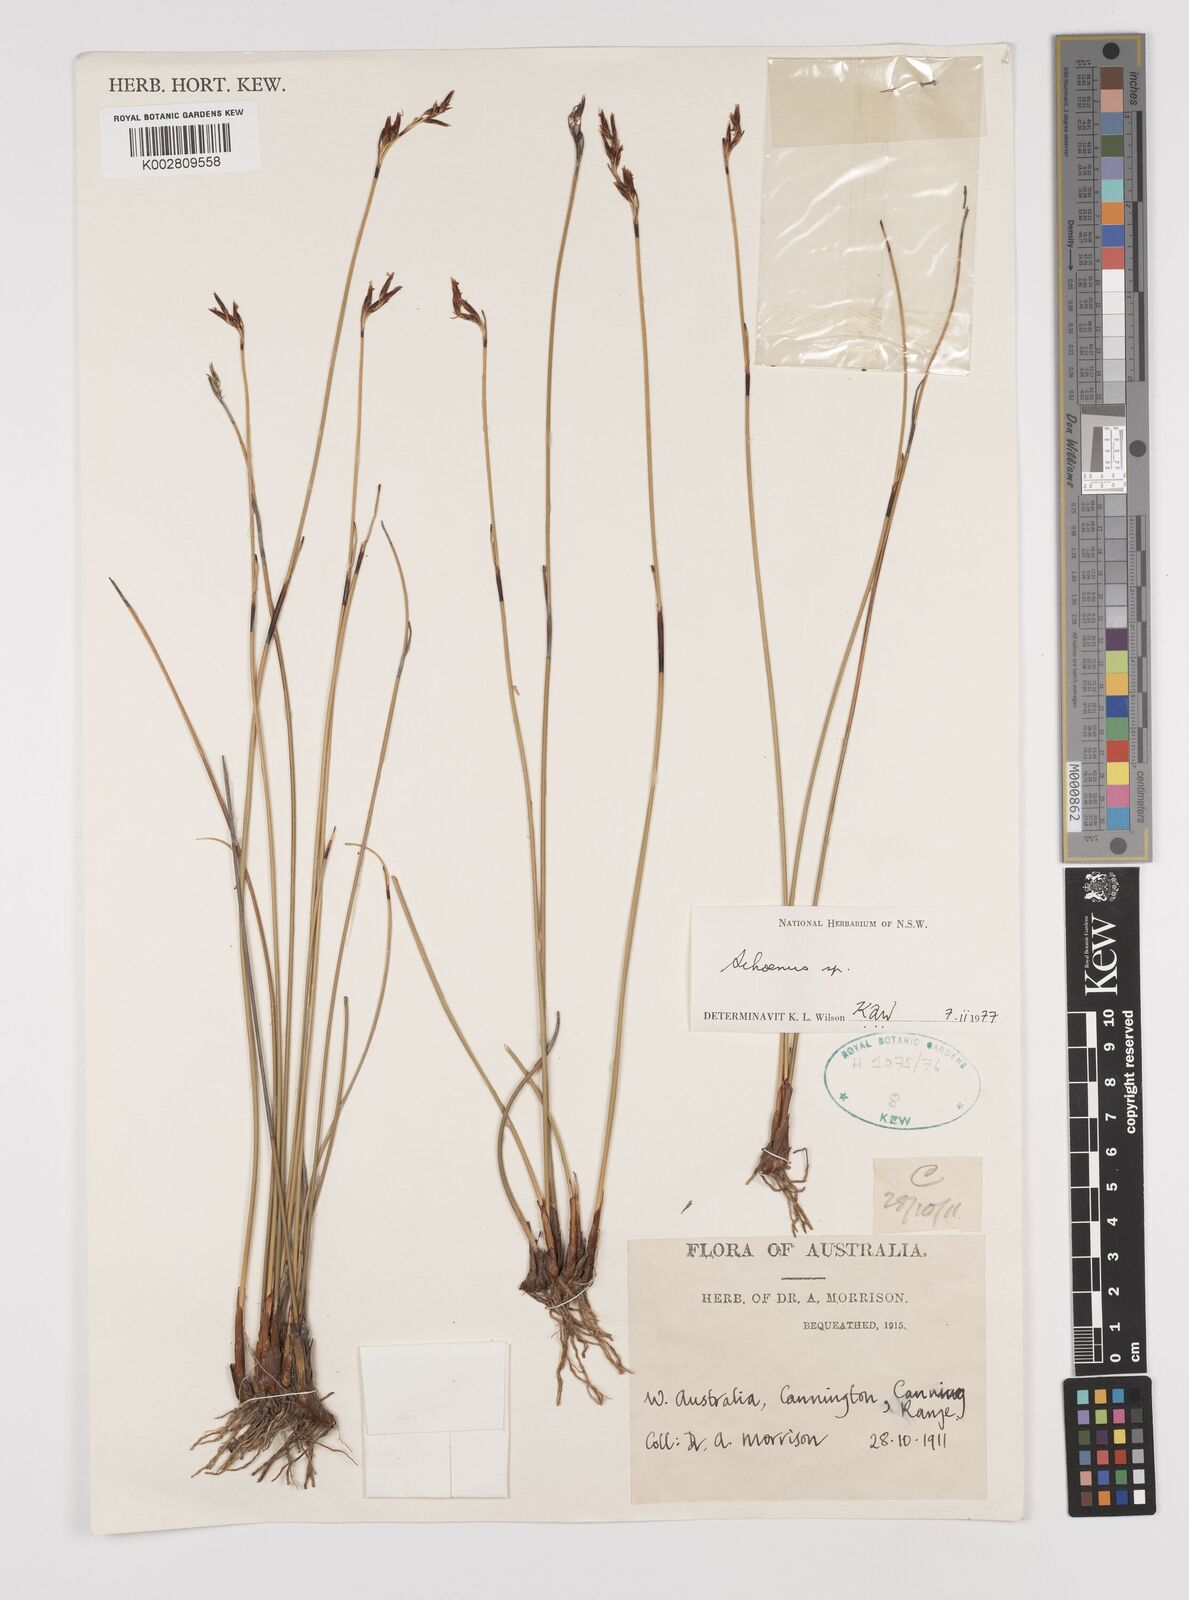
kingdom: Plantae
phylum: Tracheophyta
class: Liliopsida
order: Poales
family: Cyperaceae
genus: Schoenus
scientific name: Schoenus
